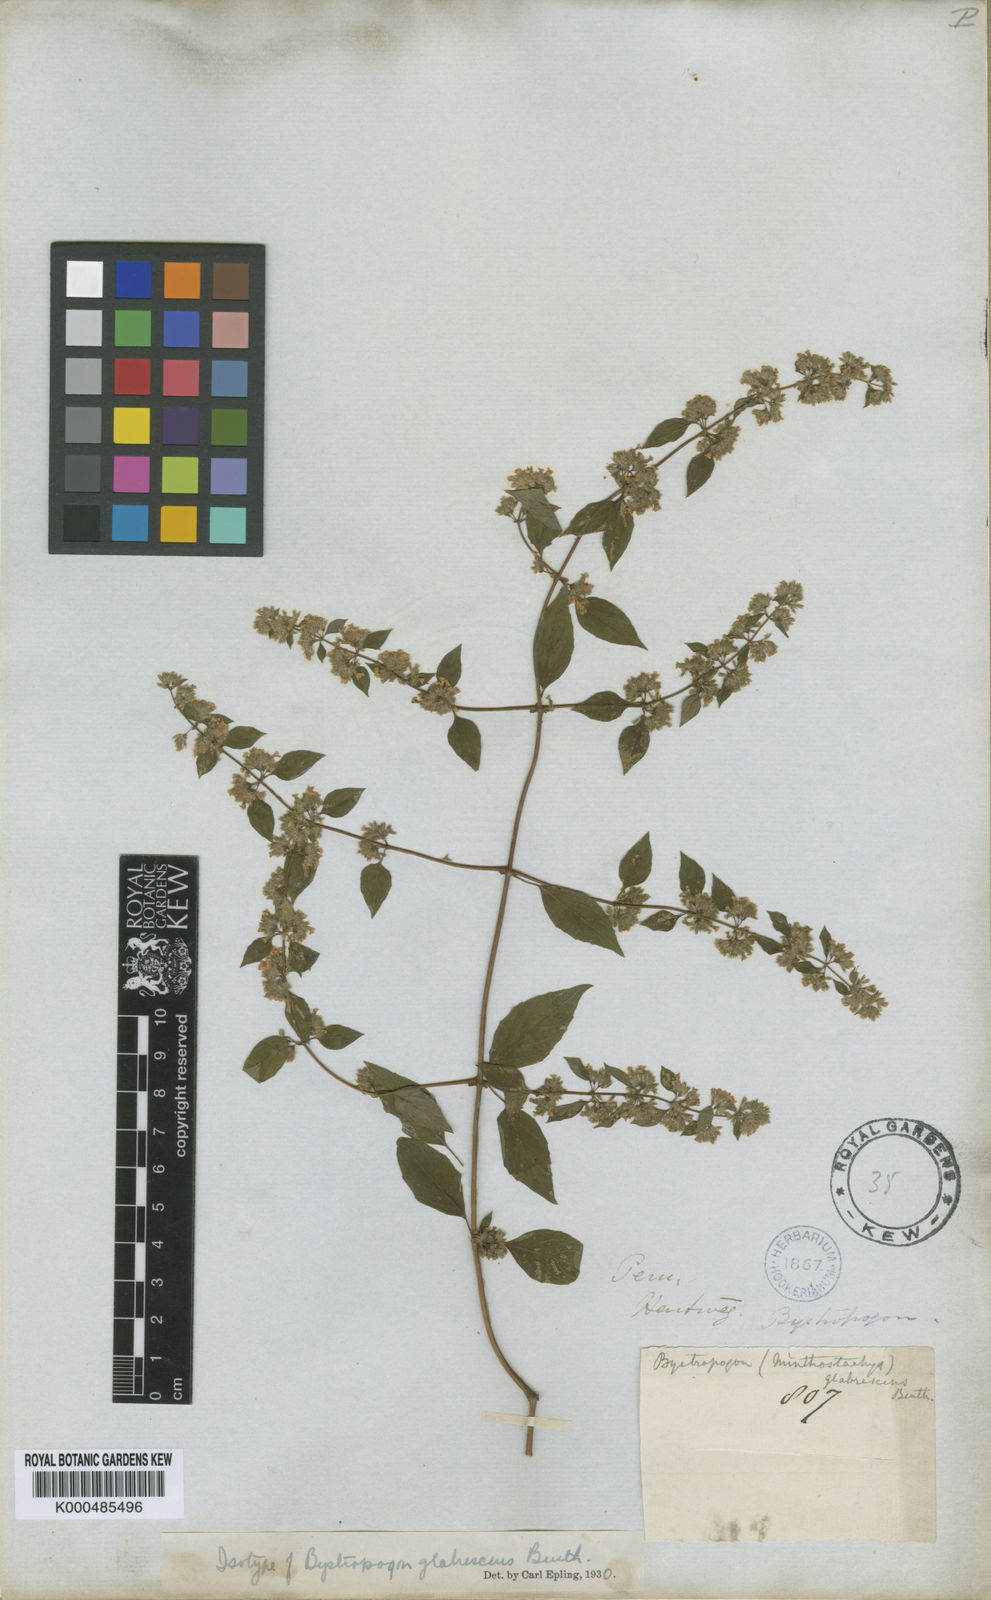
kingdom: Plantae
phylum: Tracheophyta
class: Magnoliopsida
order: Lamiales
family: Lamiaceae
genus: Minthostachys
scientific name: Minthostachys glabrescens
